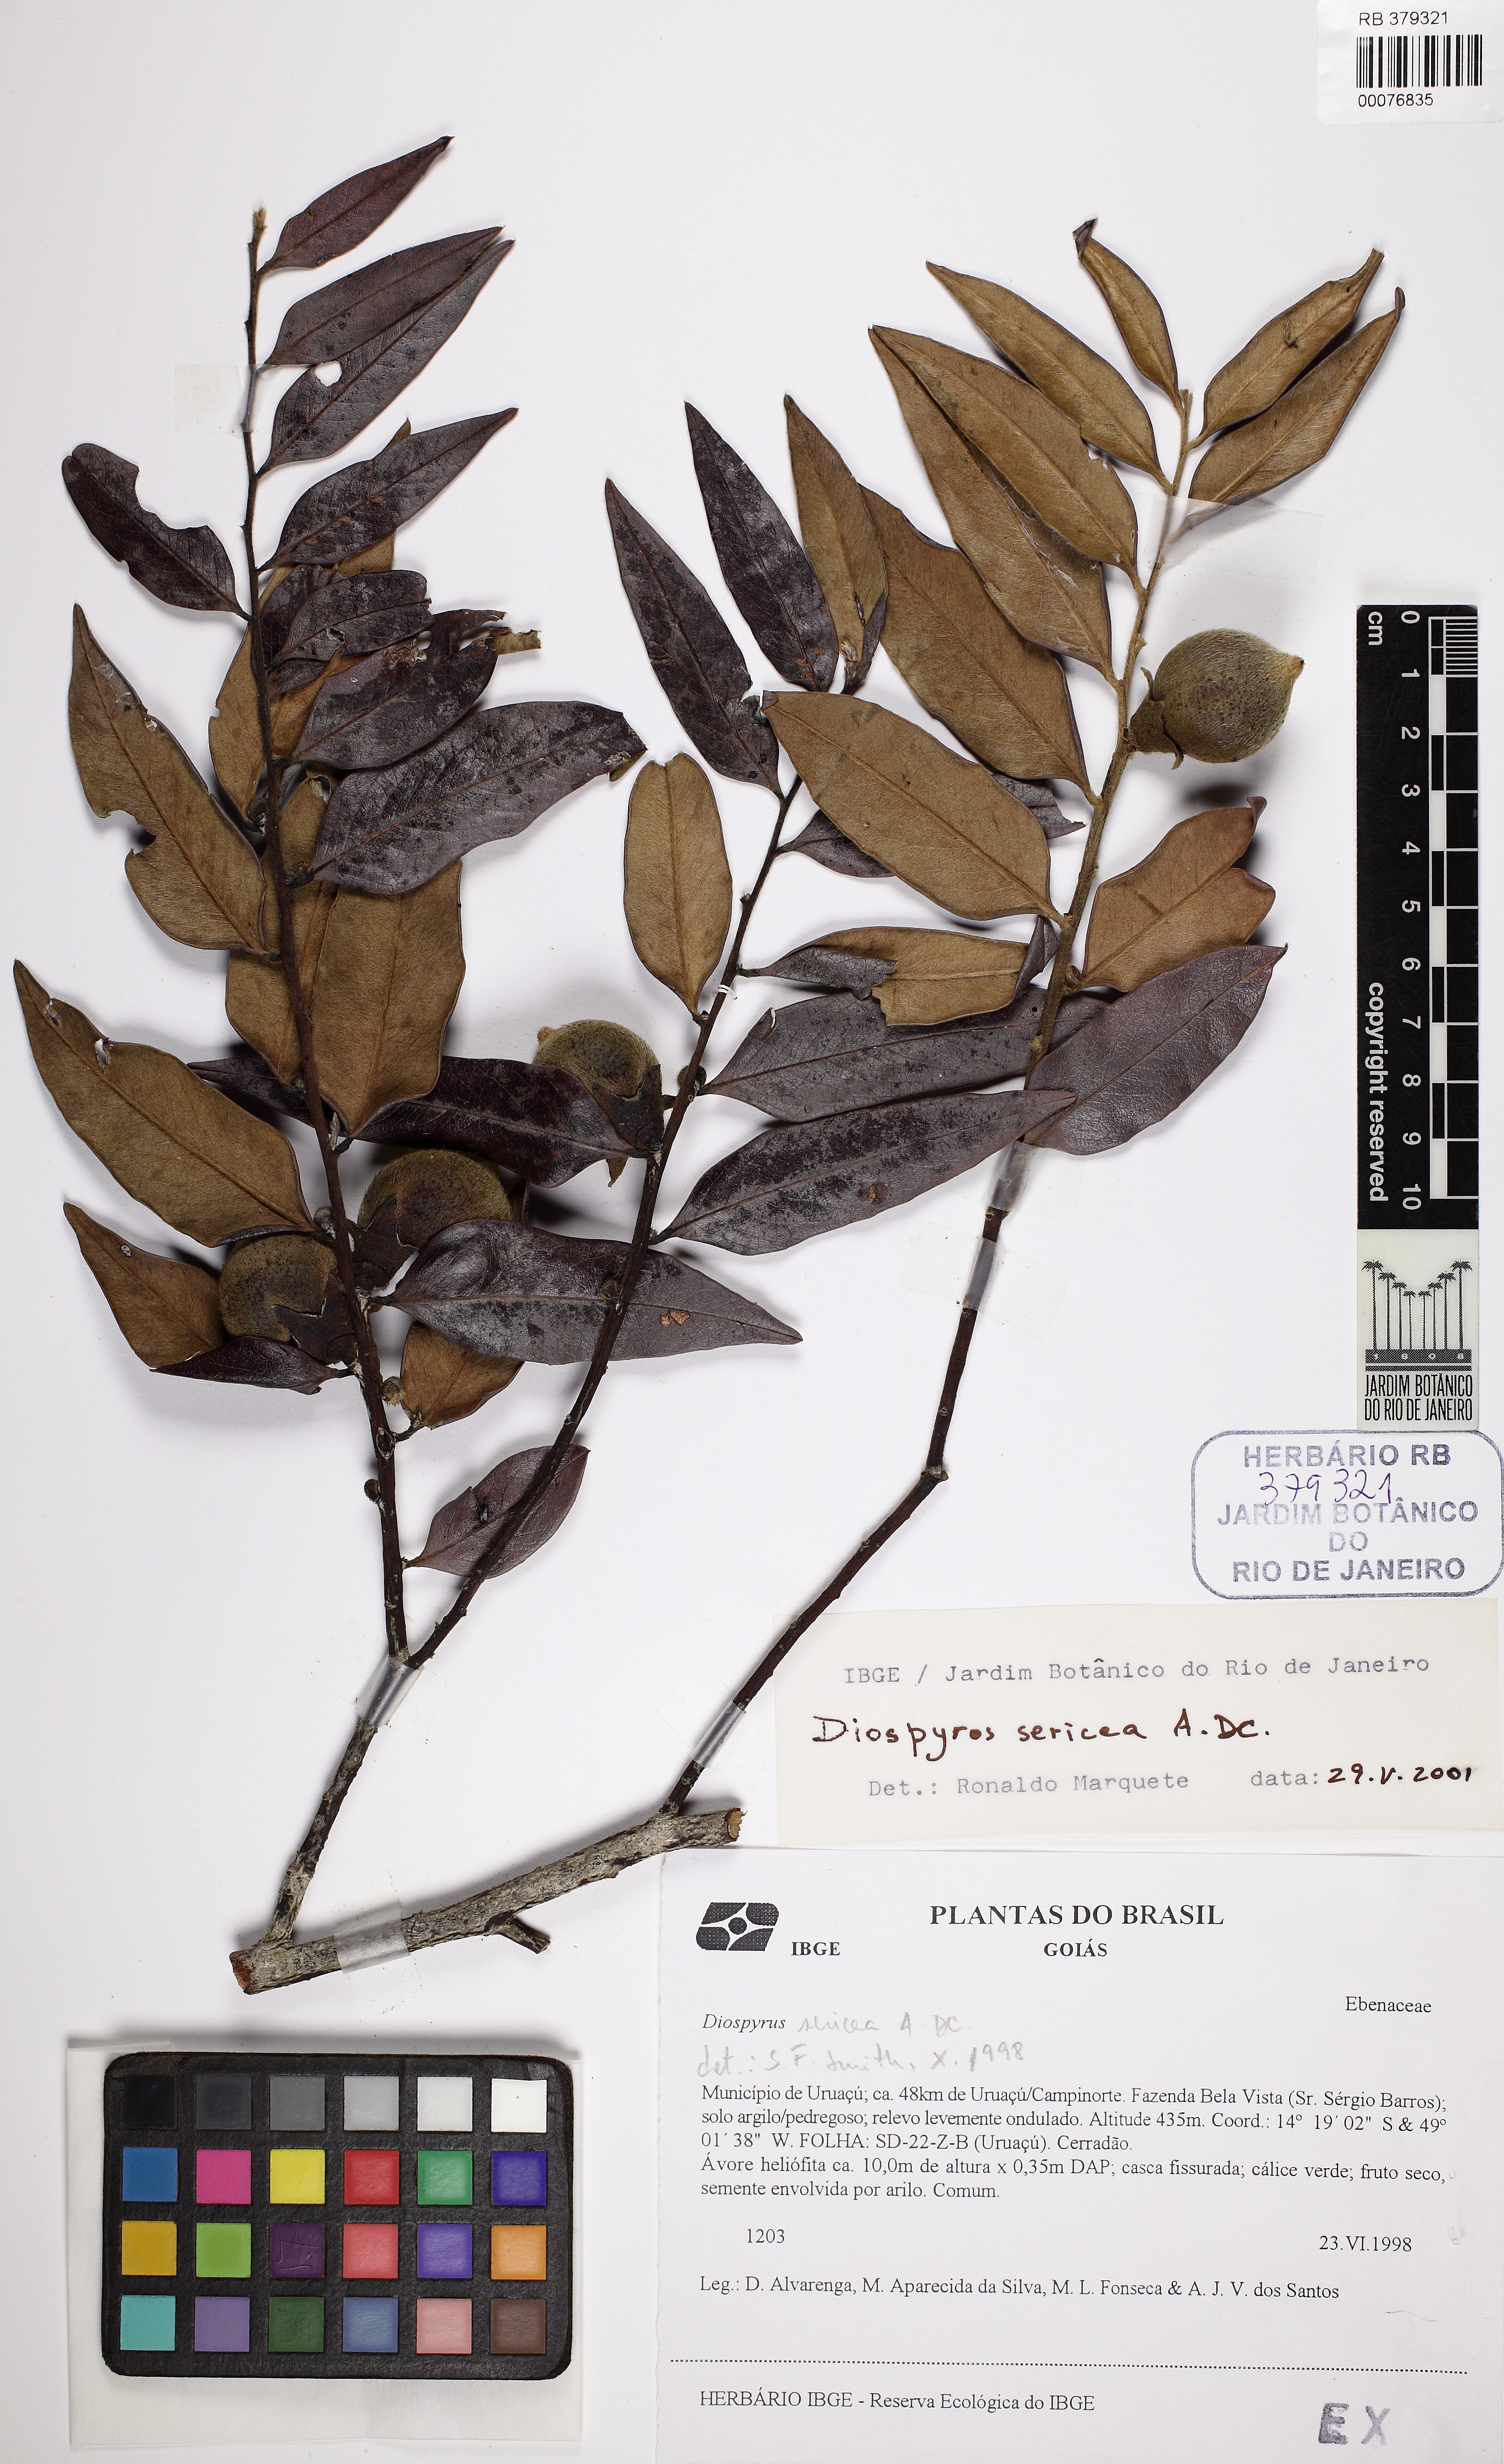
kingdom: Plantae
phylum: Tracheophyta
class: Magnoliopsida
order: Ericales
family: Ebenaceae
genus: Diospyros
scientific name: Diospyros sericea
